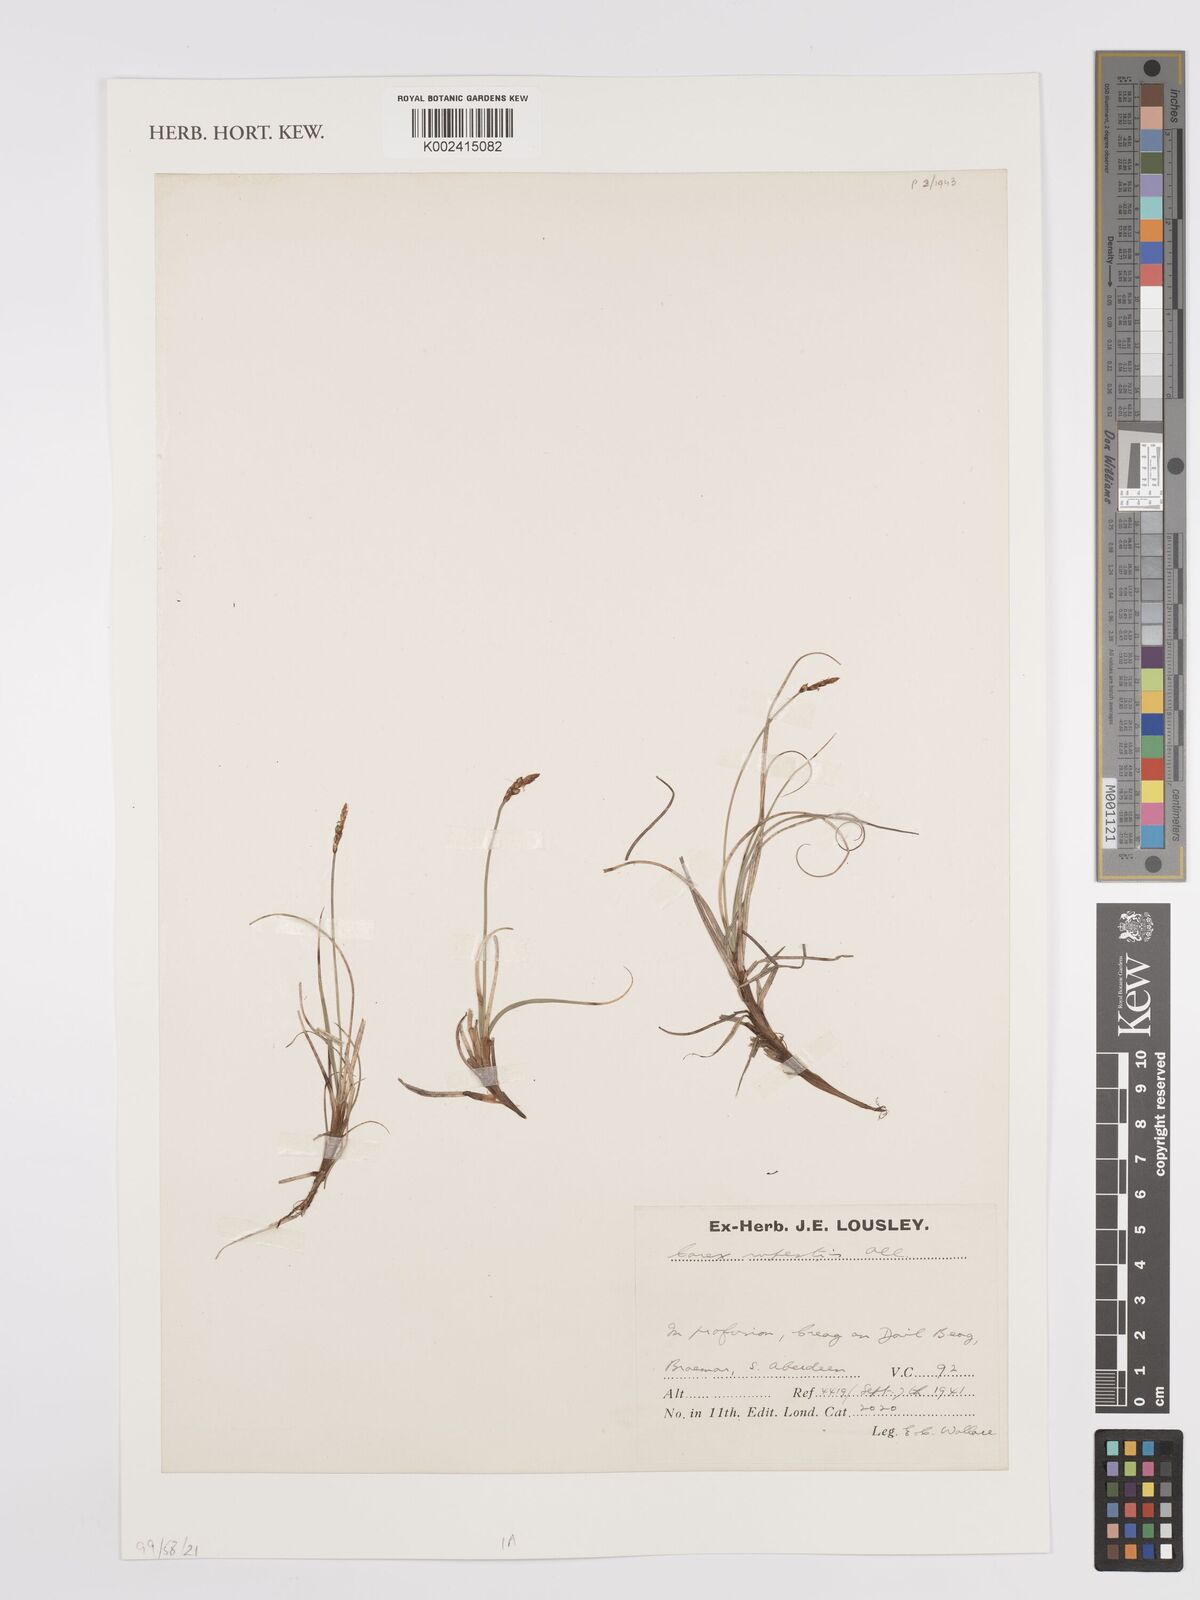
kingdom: Plantae
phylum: Tracheophyta
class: Liliopsida
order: Poales
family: Cyperaceae
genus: Carex
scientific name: Carex rupestris
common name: Rock sedge
